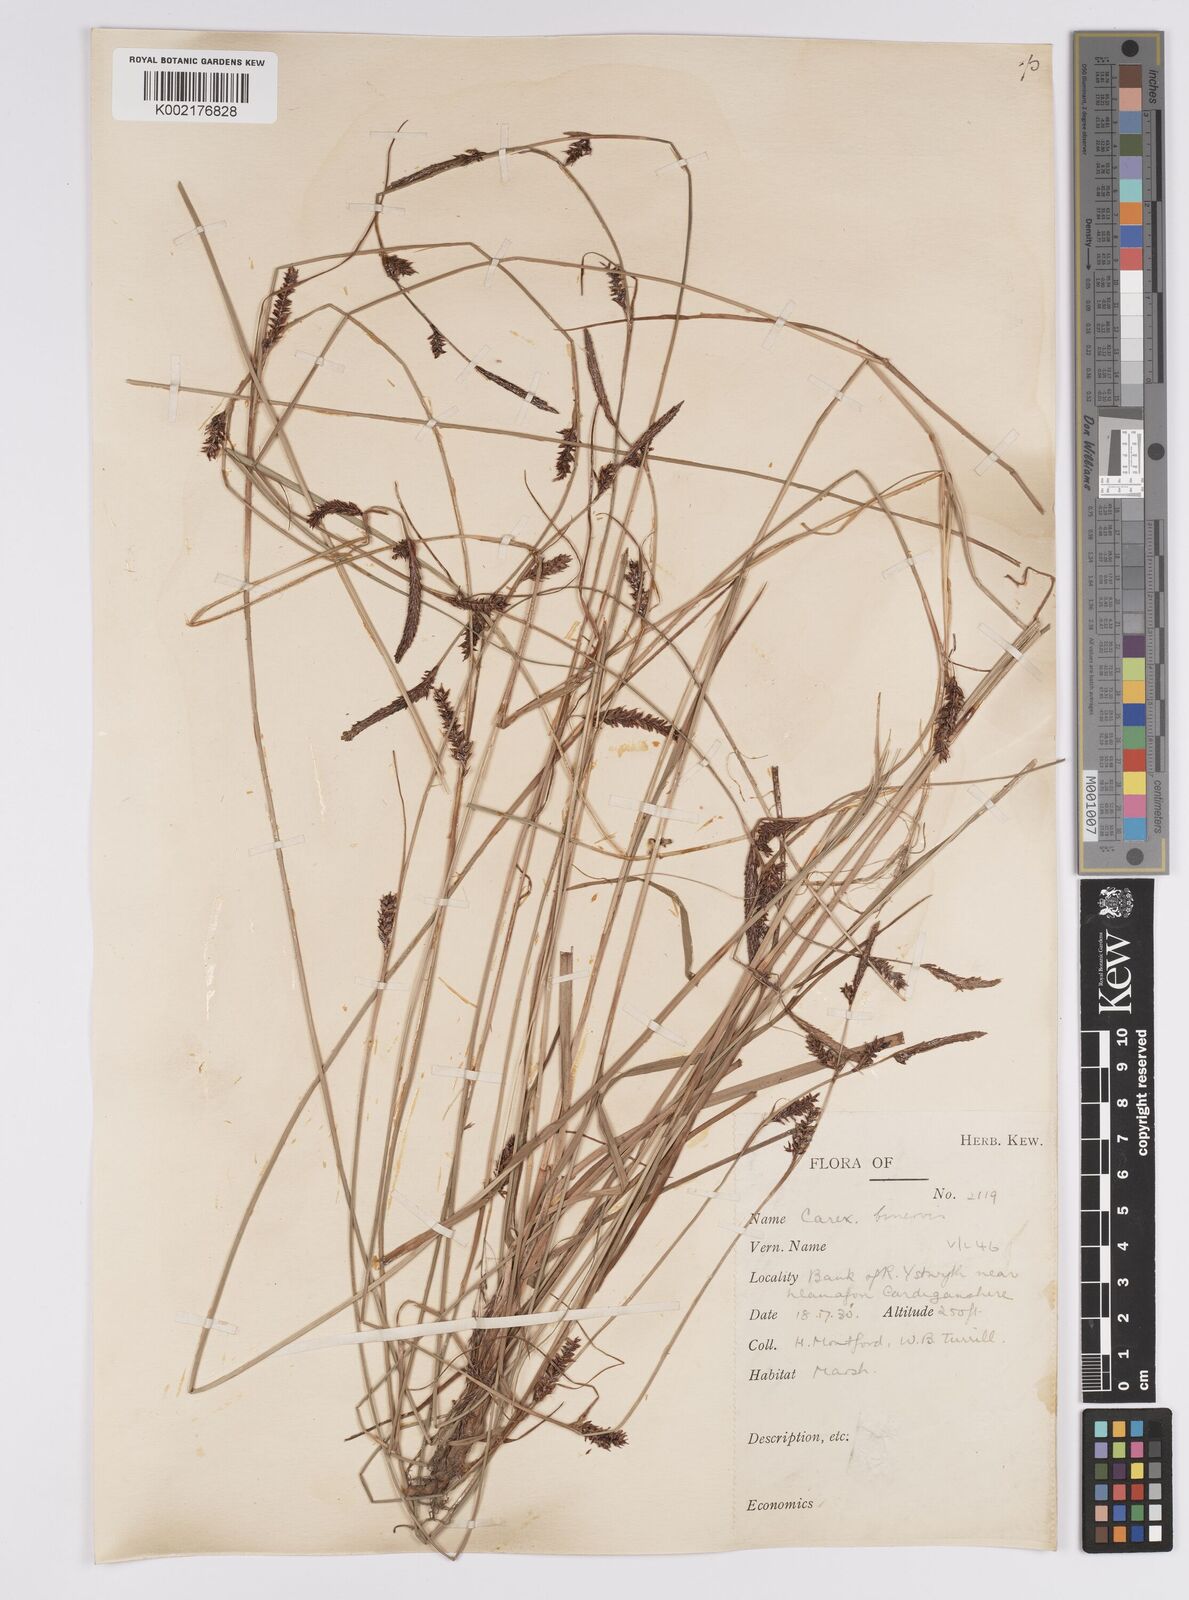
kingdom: Plantae
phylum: Tracheophyta
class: Liliopsida
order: Poales
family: Cyperaceae
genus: Carex
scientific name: Carex binervis
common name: Green-ribbed sedge
